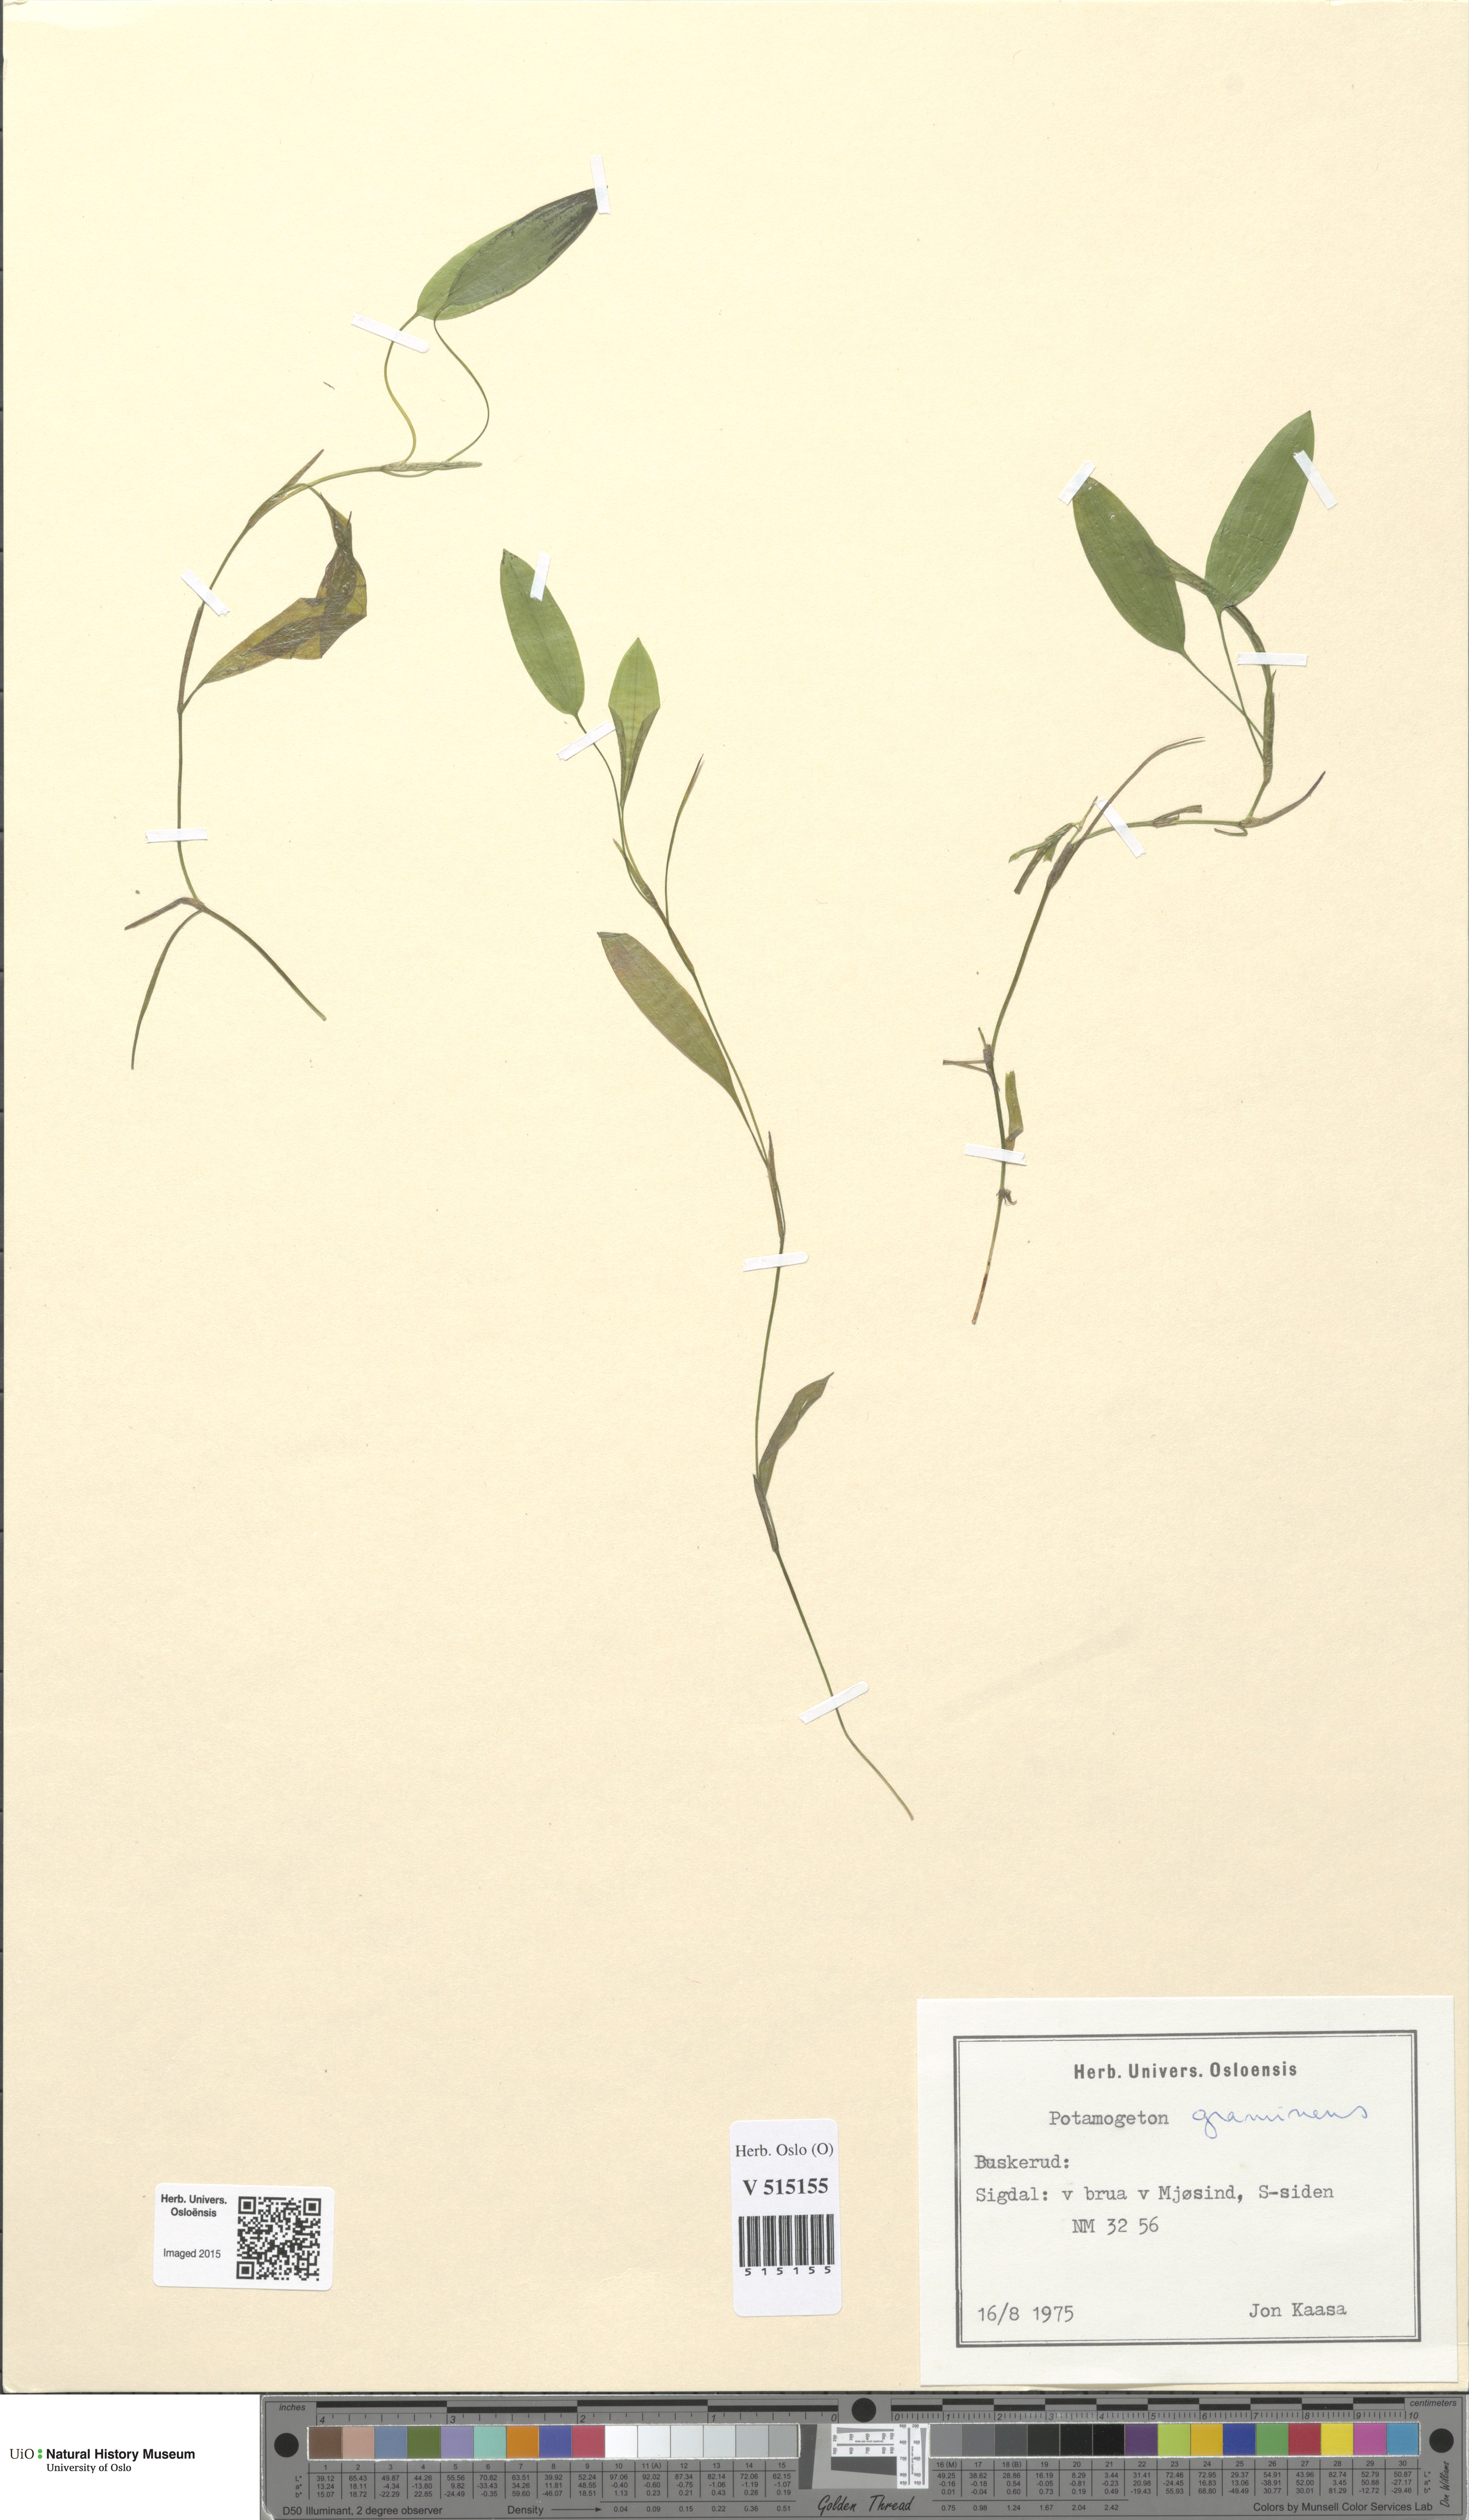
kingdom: Plantae
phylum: Tracheophyta
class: Liliopsida
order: Alismatales
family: Potamogetonaceae
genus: Potamogeton
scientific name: Potamogeton gramineus
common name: Various-leaved pondweed
